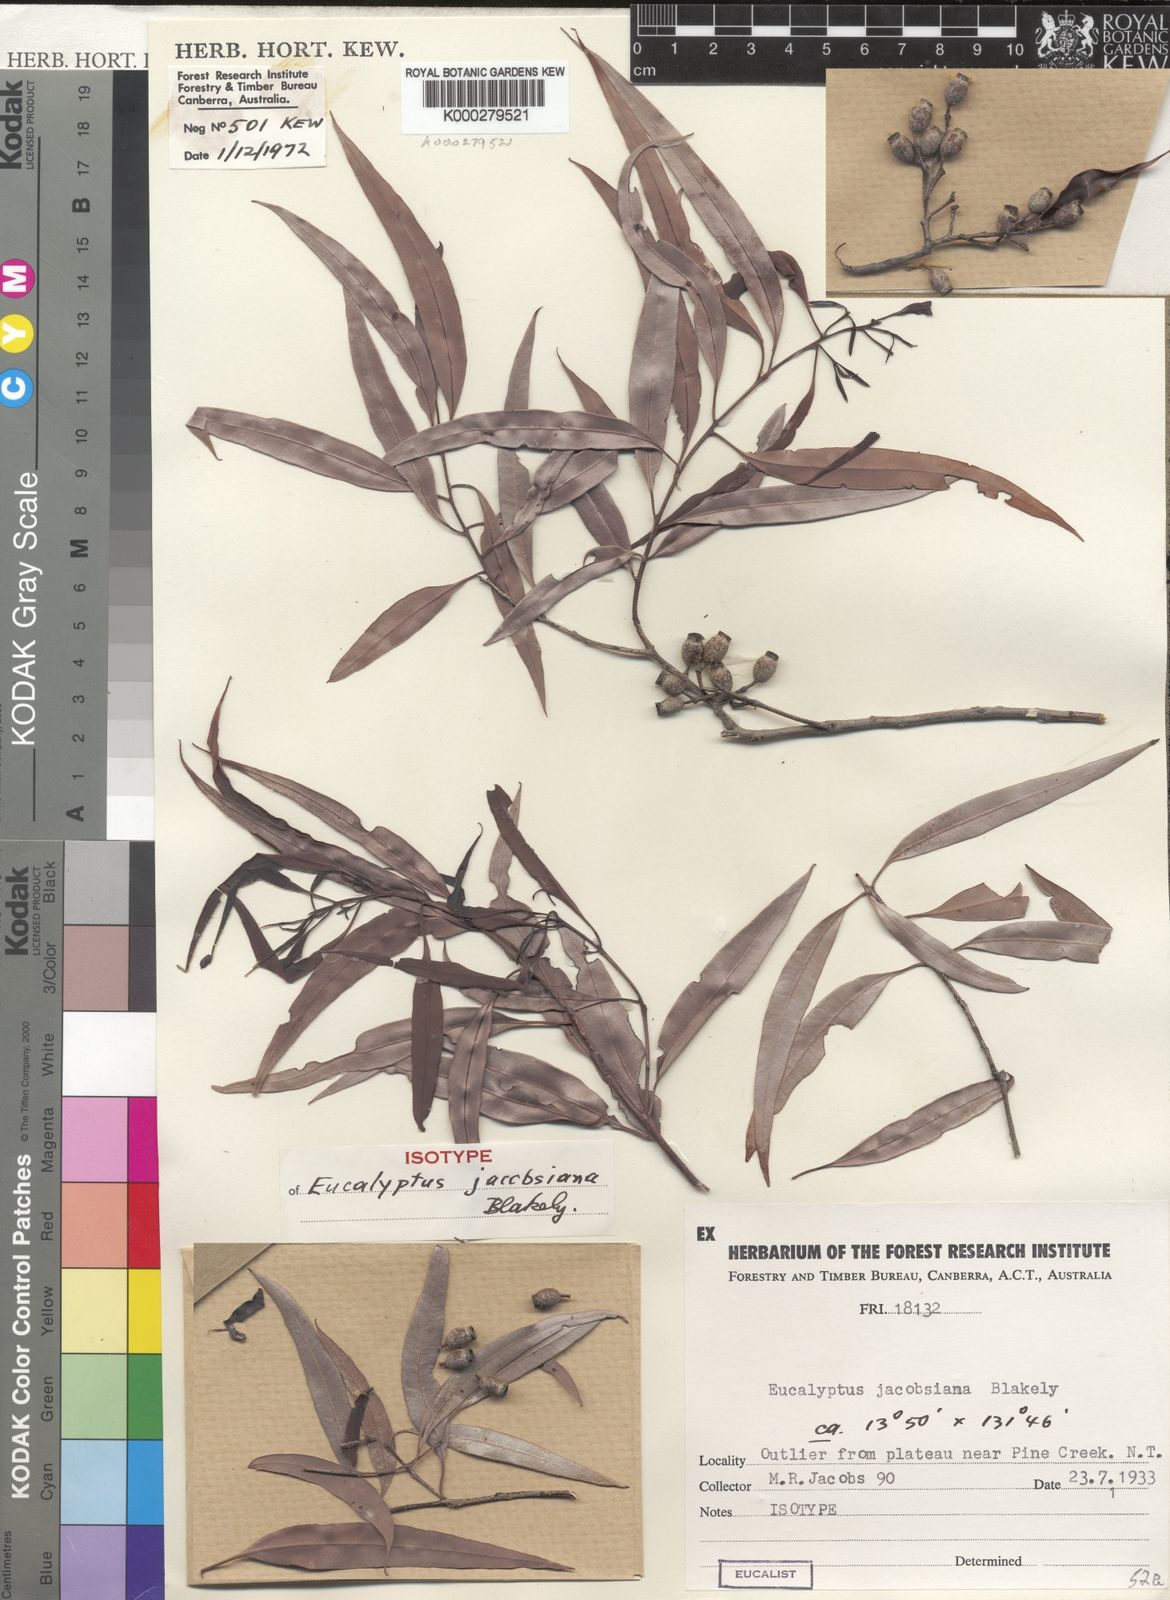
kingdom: Plantae
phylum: Tracheophyta
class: Magnoliopsida
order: Myrtales
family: Myrtaceae
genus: Corymbia
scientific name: Corymbia jacobsiana
